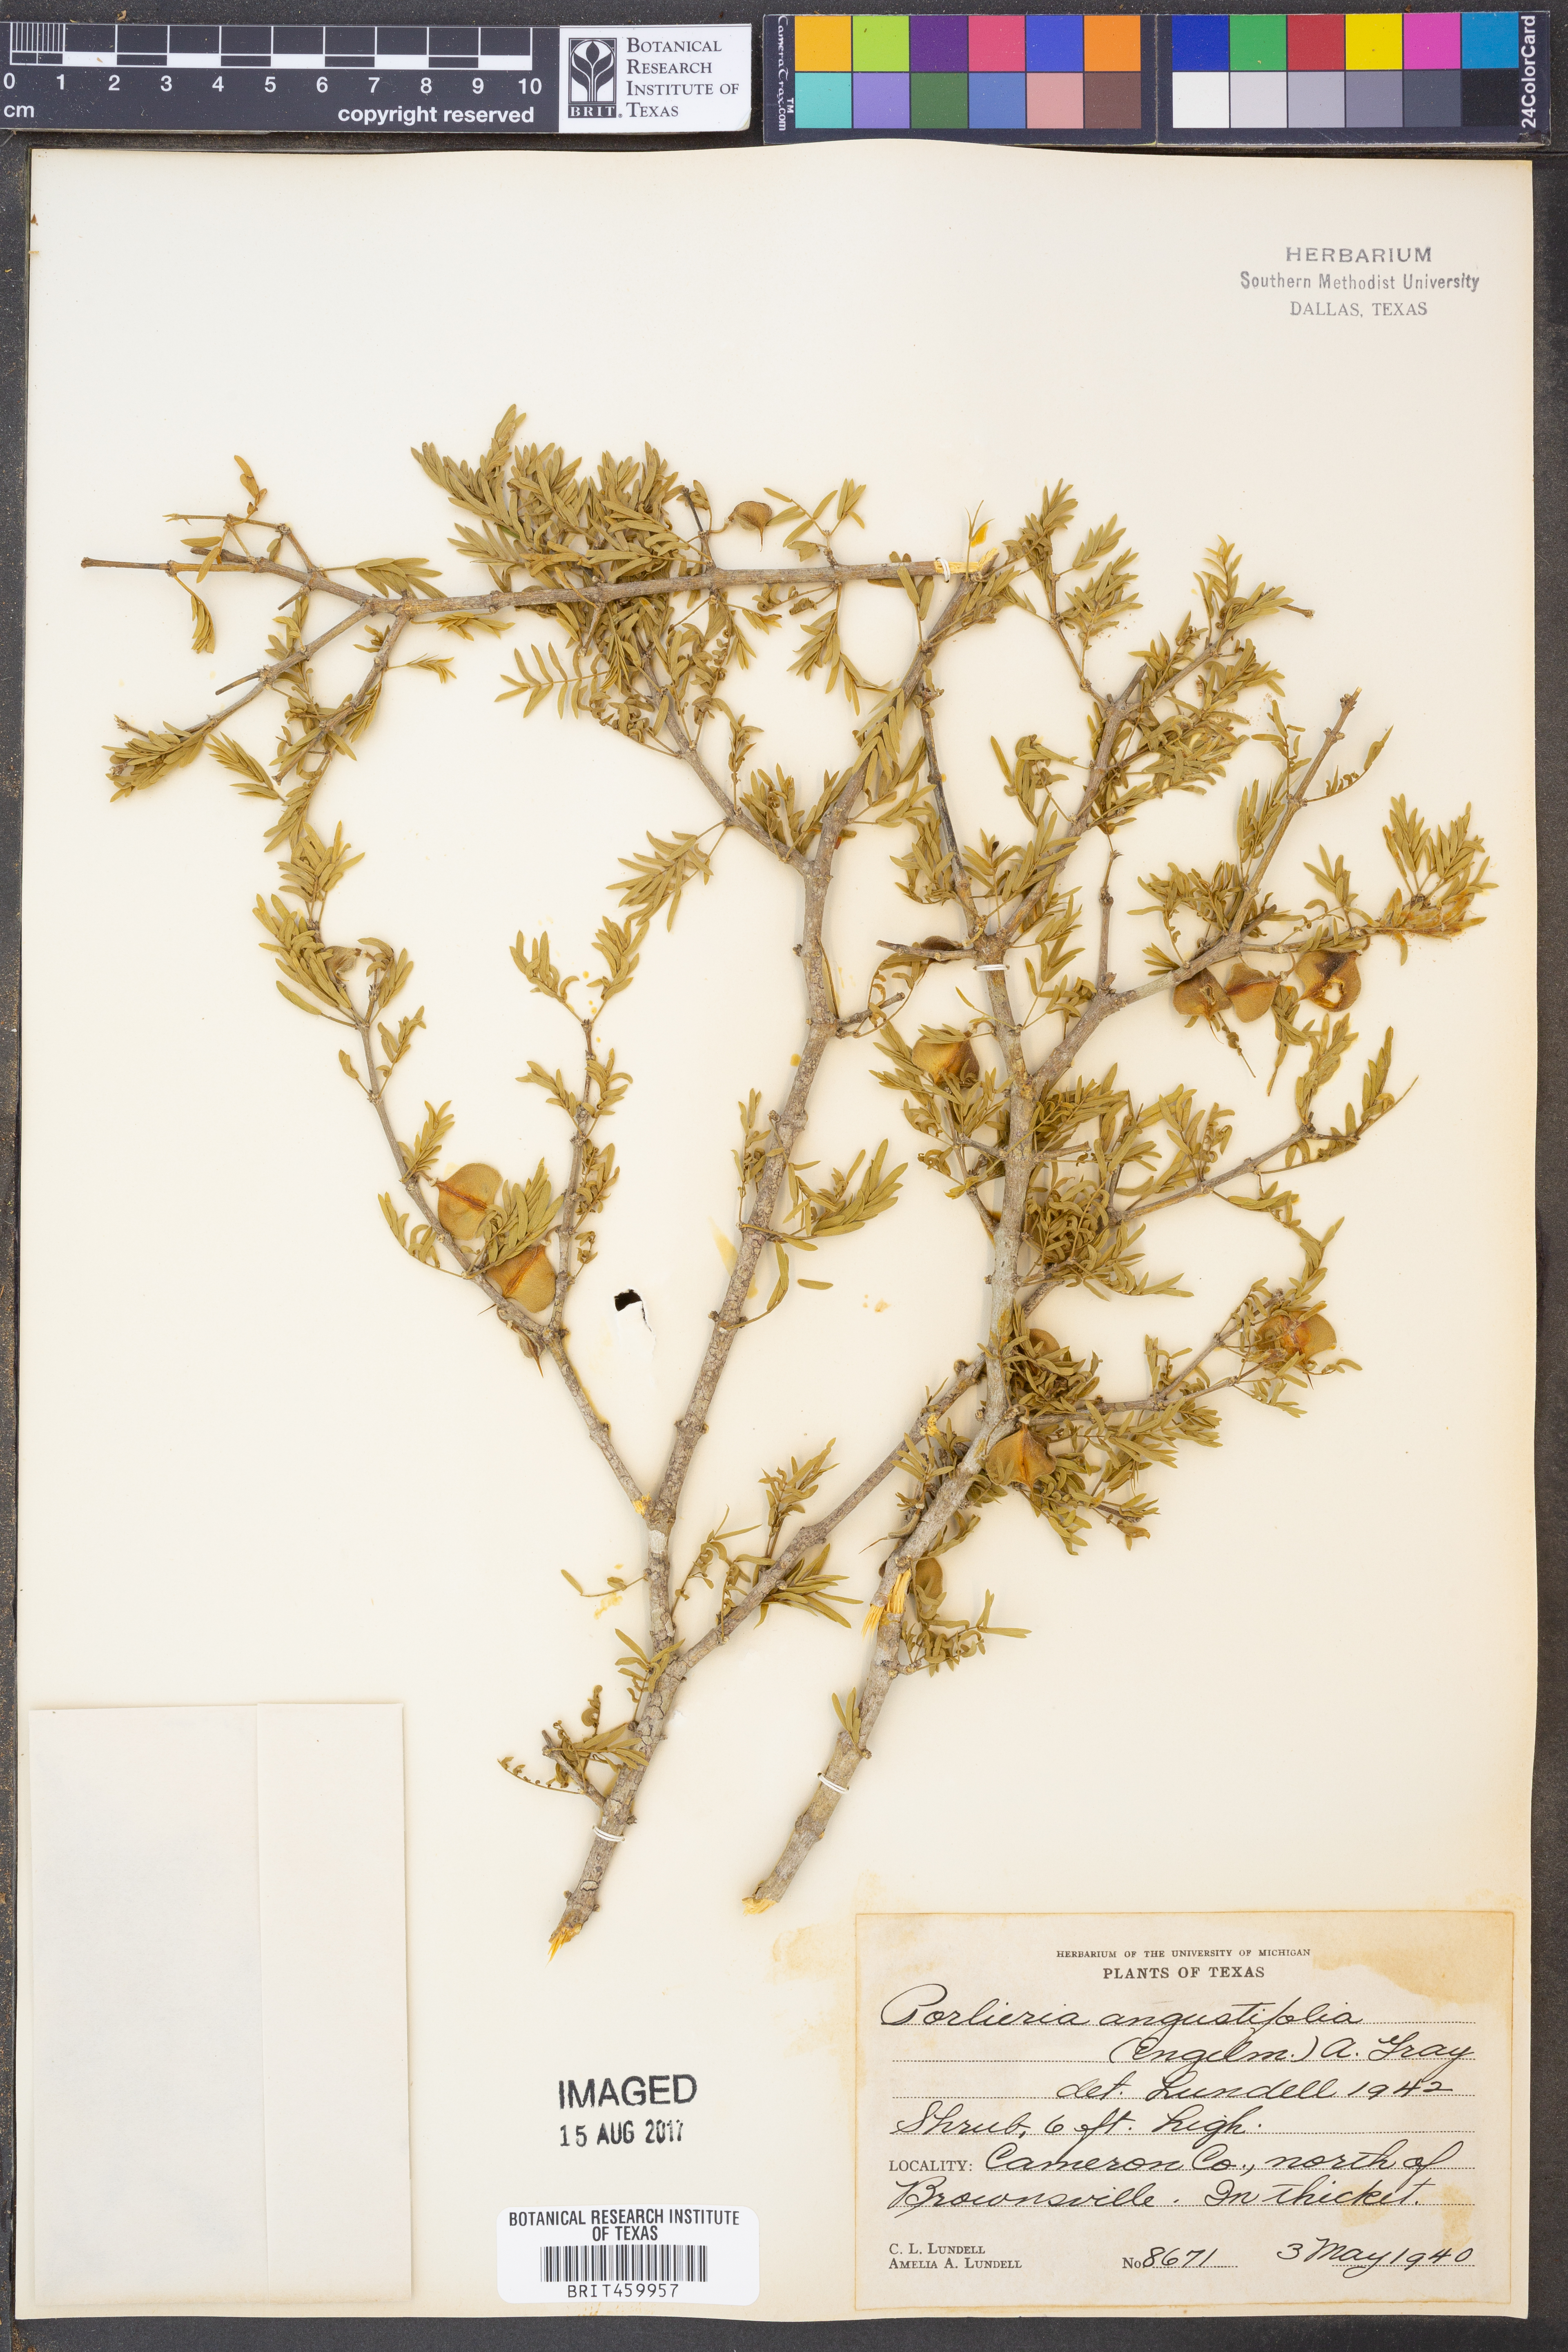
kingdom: Plantae
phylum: Tracheophyta
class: Magnoliopsida
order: Zygophyllales
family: Zygophyllaceae
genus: Porlieria
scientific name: Porlieria angustifolia
